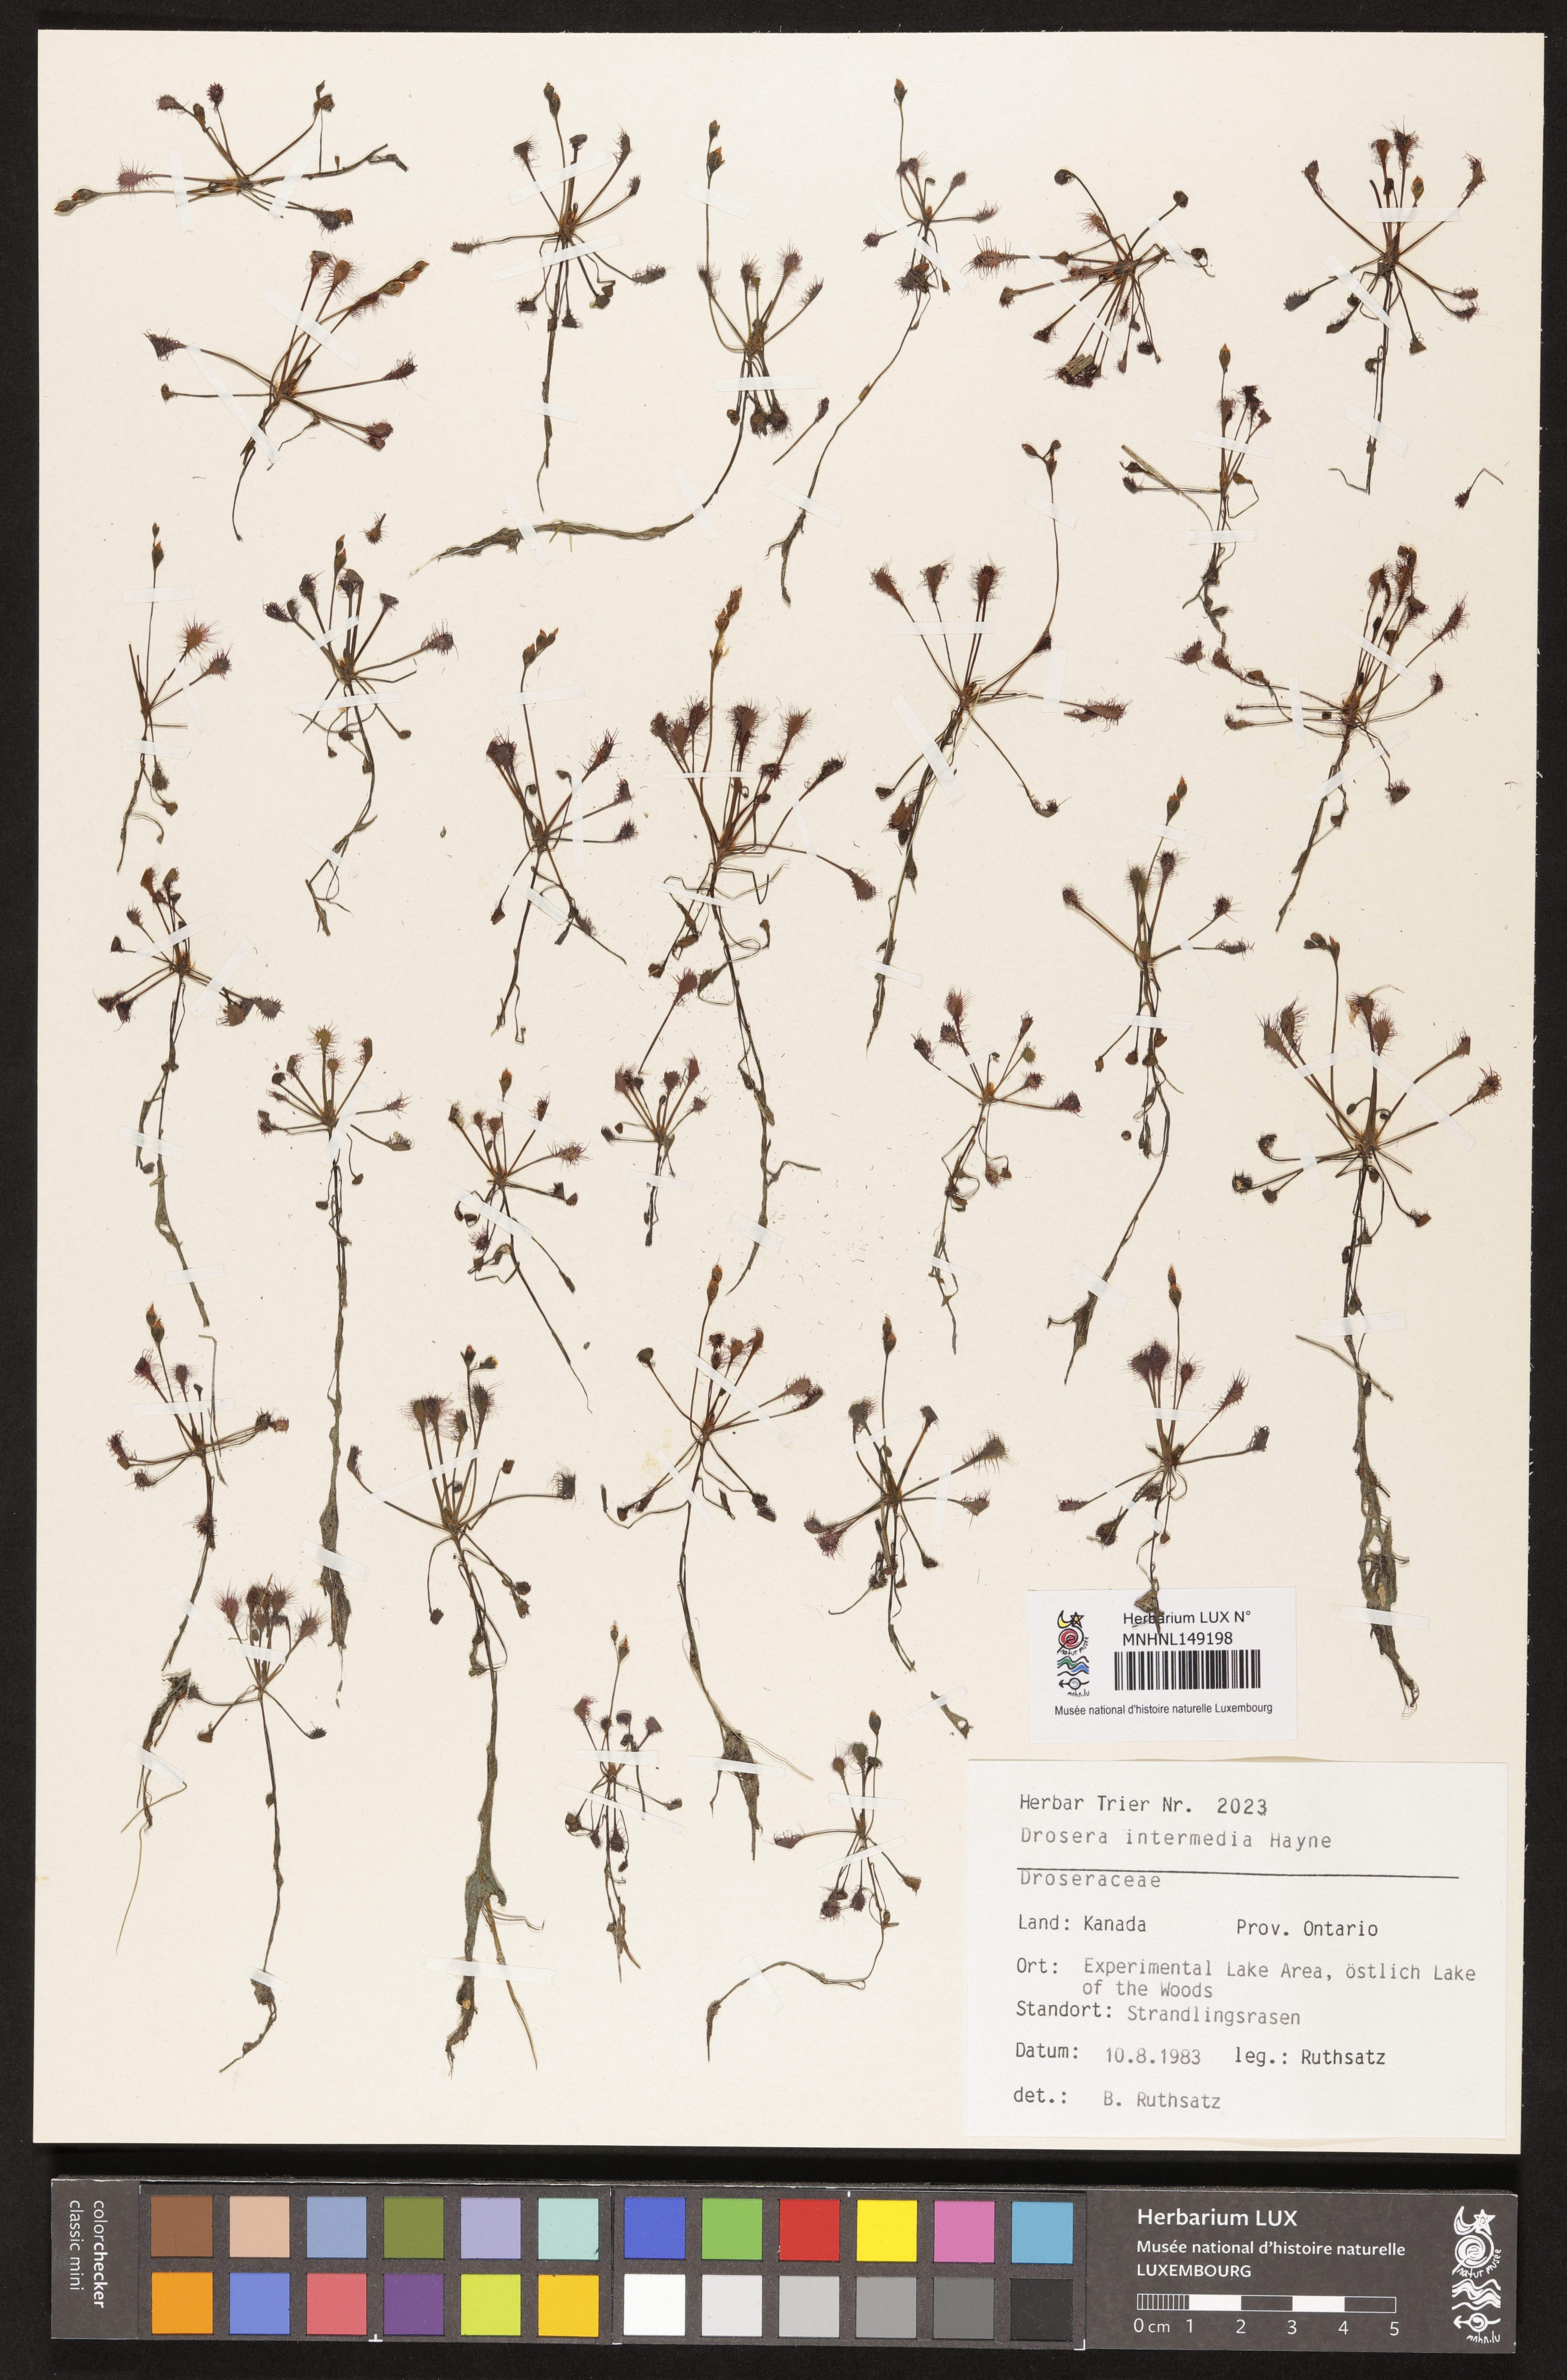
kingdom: Plantae
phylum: Tracheophyta
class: Magnoliopsida
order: Caryophyllales
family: Droseraceae
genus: Drosera
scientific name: Drosera intermedia
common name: Oblong-leaved sundew
